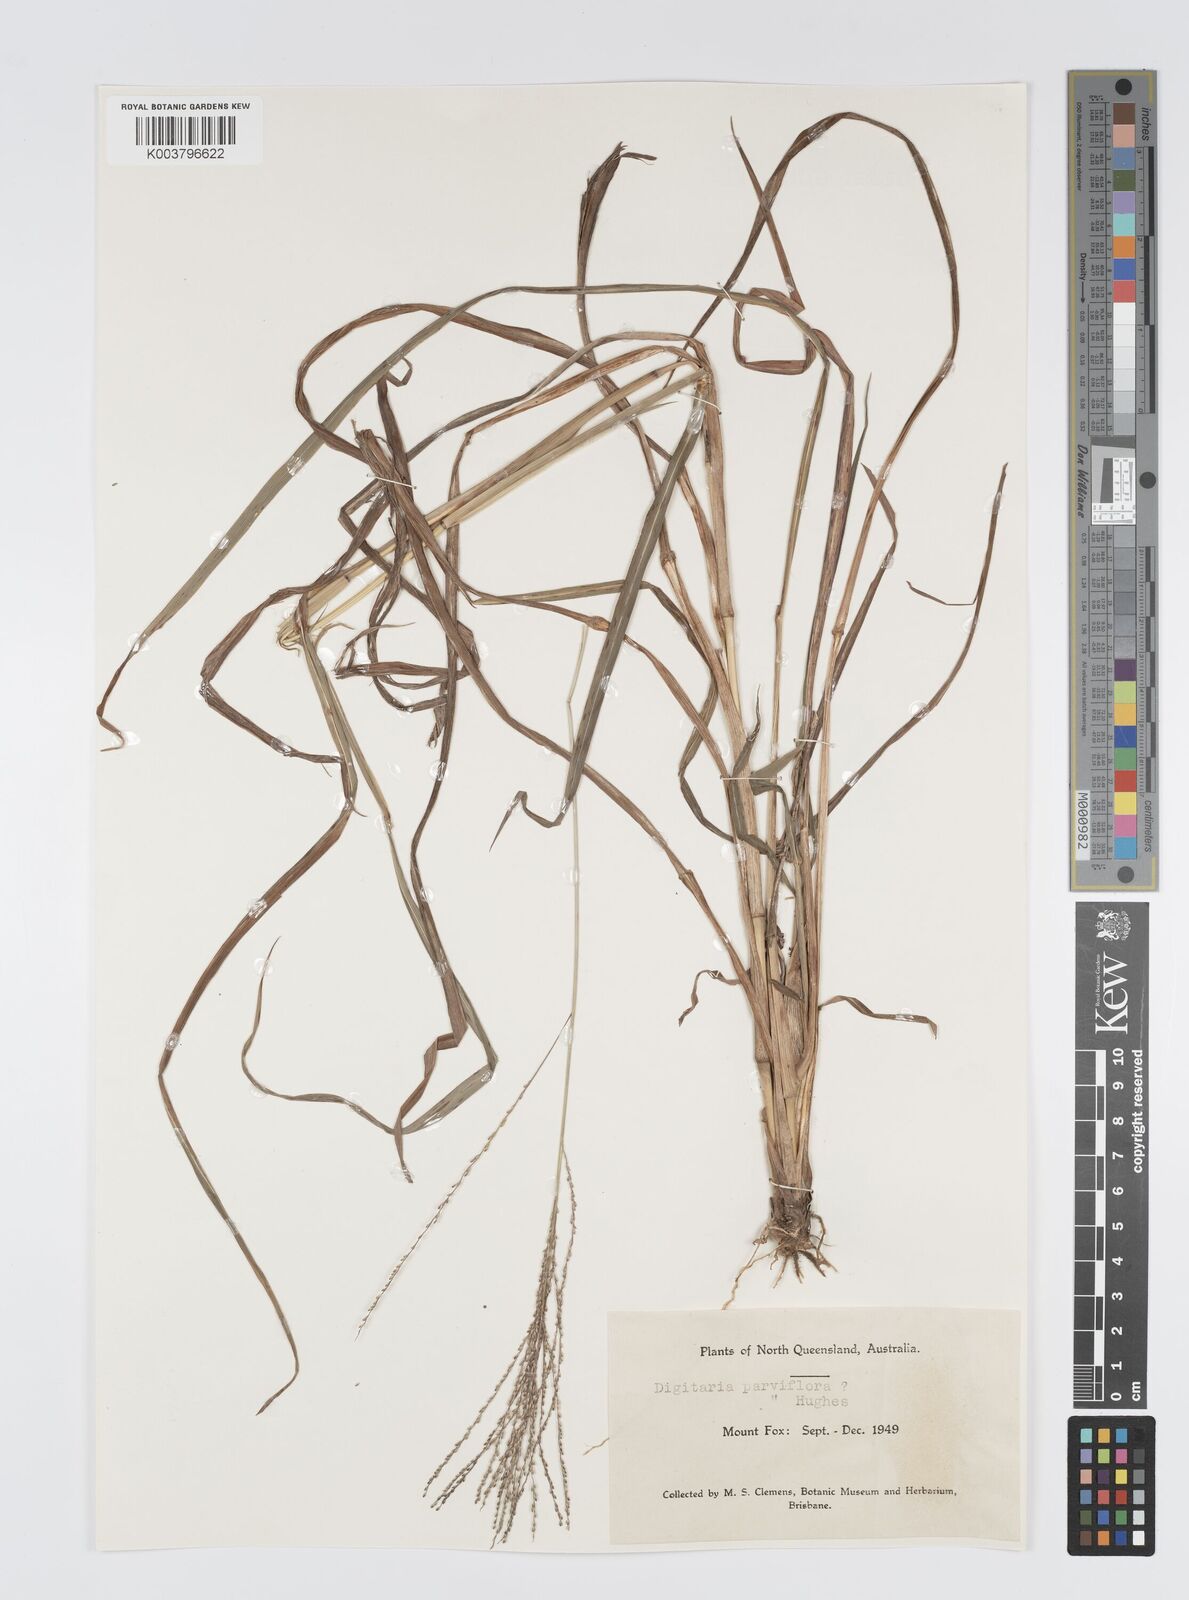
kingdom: Plantae
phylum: Tracheophyta
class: Liliopsida
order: Poales
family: Poaceae
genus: Digitaria
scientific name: Digitaria parviflora
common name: Small-flower finger grass
